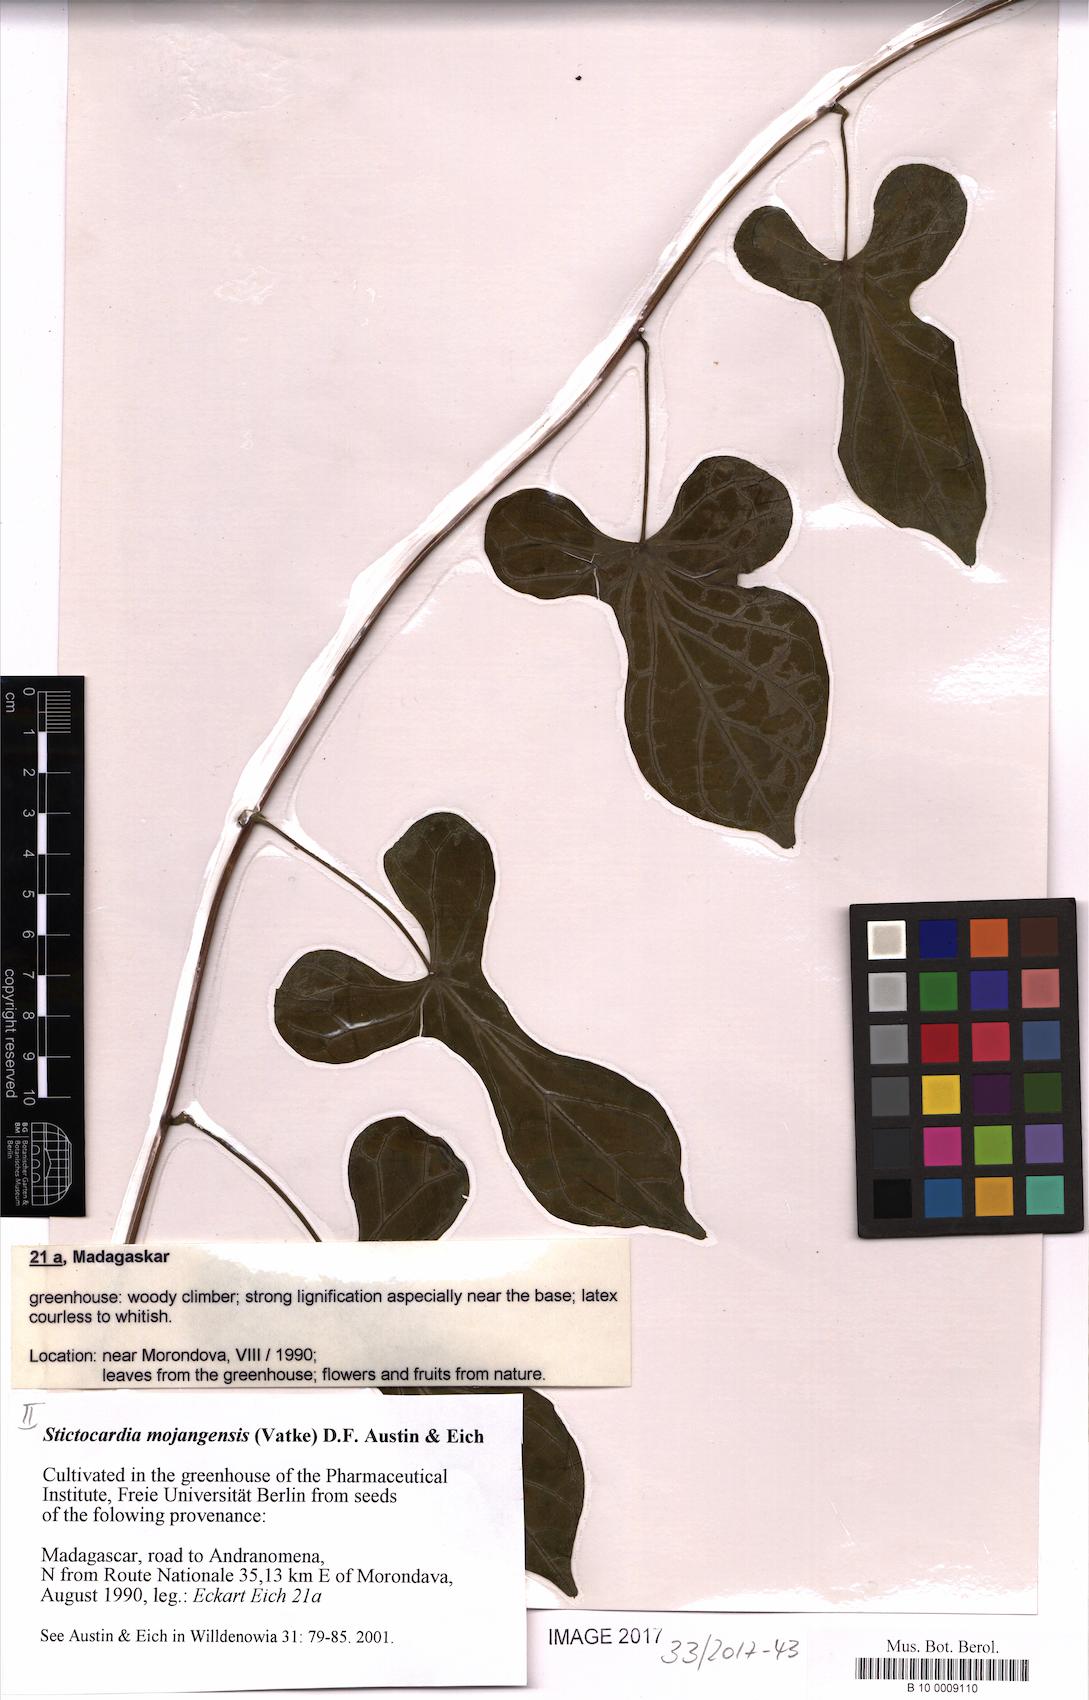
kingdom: Plantae
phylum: Tracheophyta
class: Magnoliopsida
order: Solanales
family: Convolvulaceae
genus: Stictocardia
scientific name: Stictocardia mojangensis
